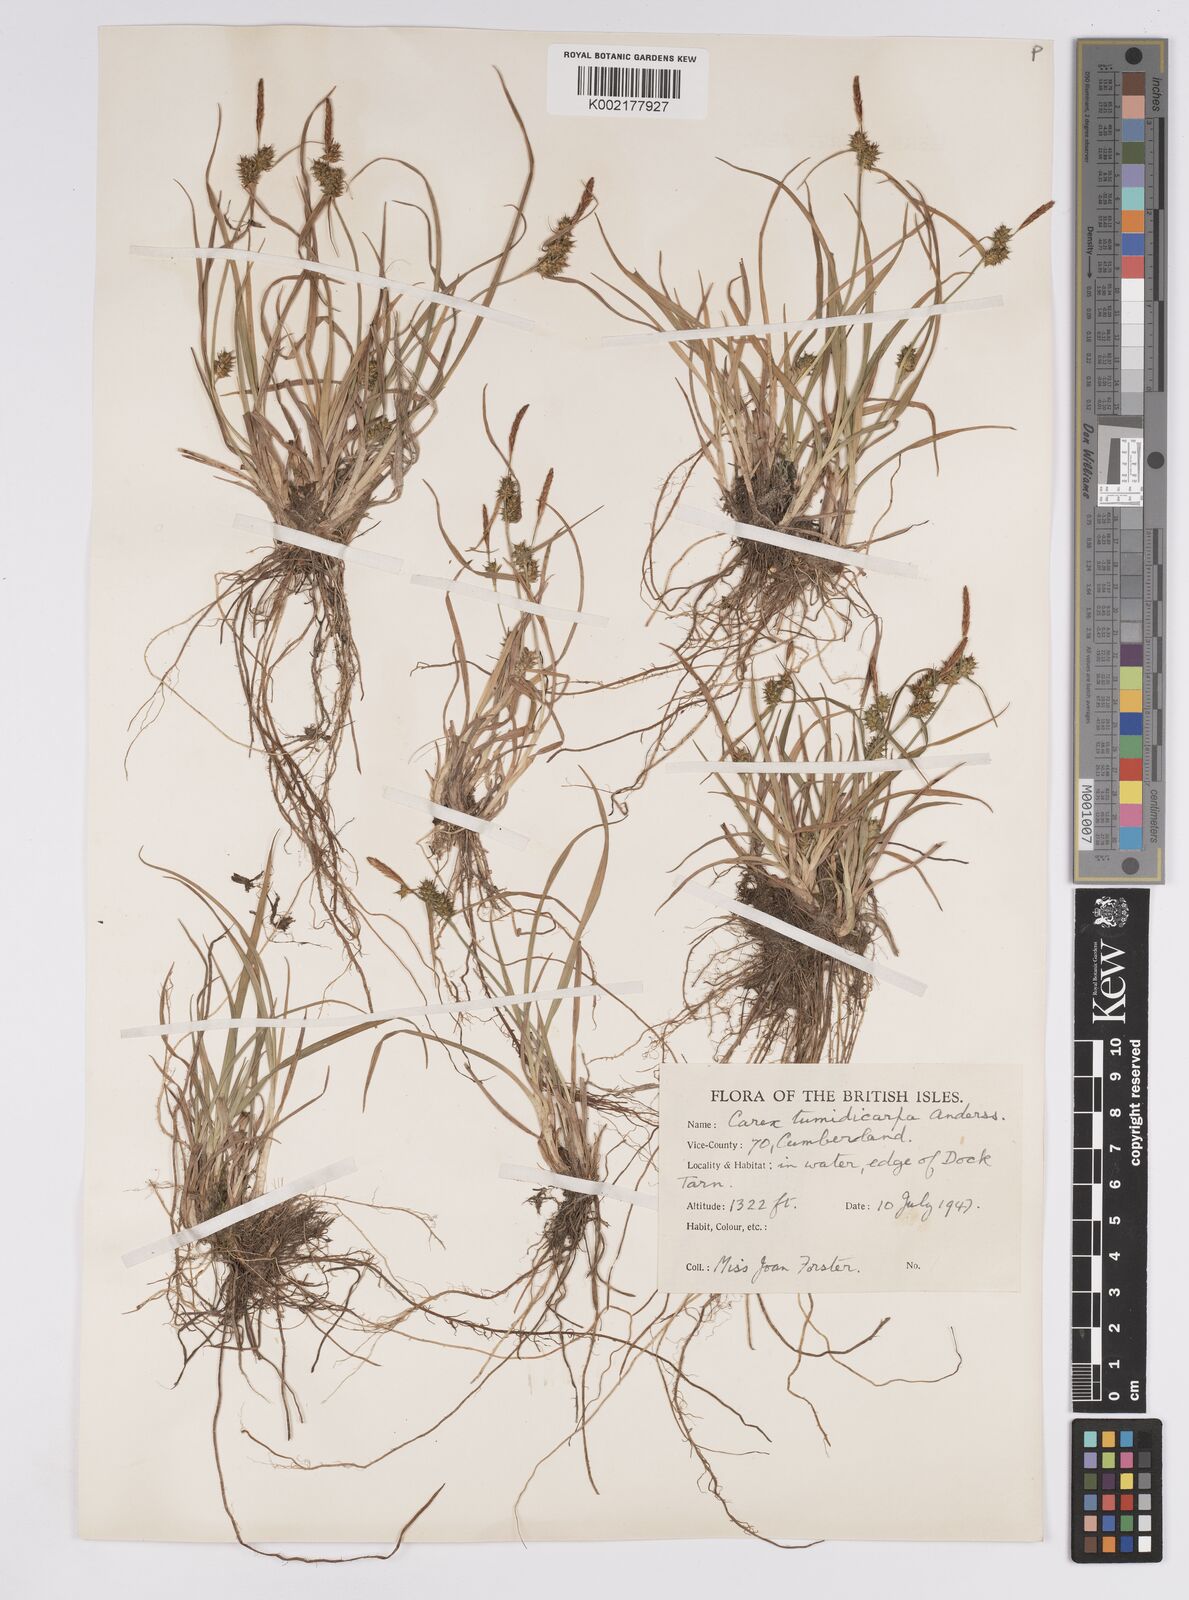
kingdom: Plantae
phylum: Tracheophyta
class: Liliopsida
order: Poales
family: Cyperaceae
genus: Carex
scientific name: Carex demissa
